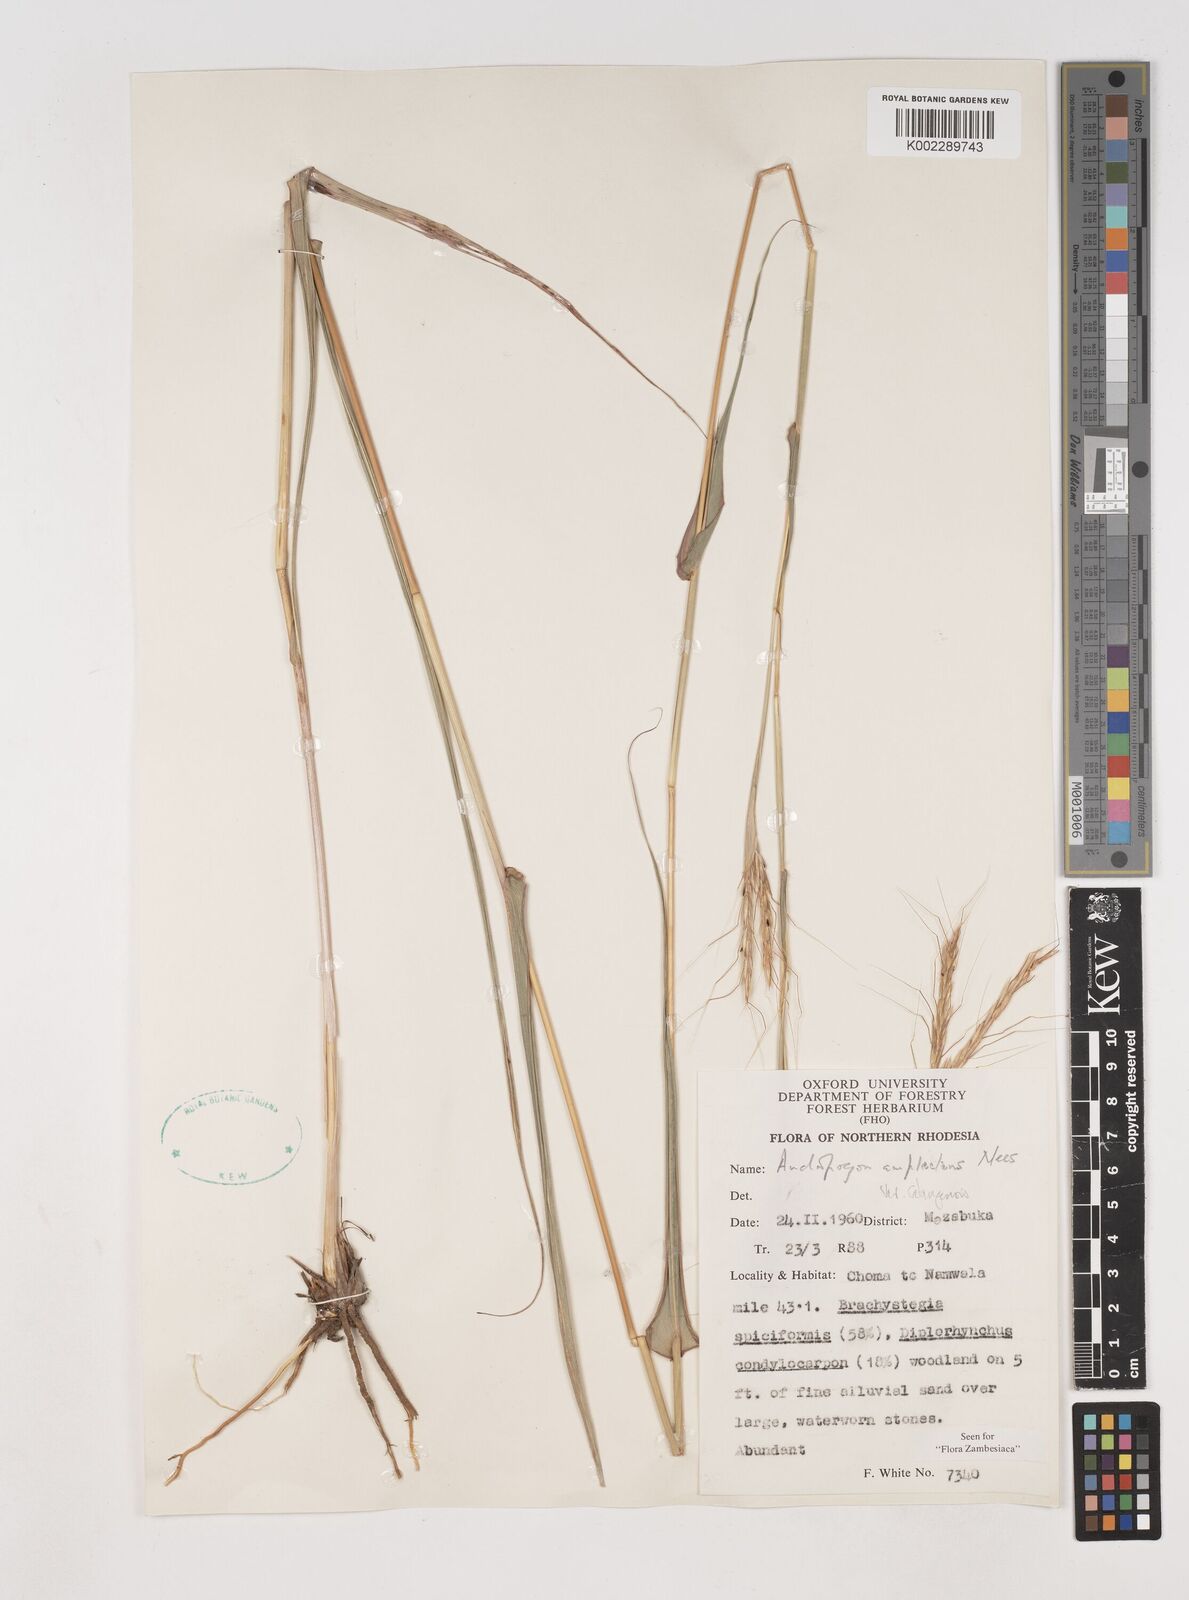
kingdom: Plantae
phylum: Tracheophyta
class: Liliopsida
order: Poales
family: Poaceae
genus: Diheteropogon
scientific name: Diheteropogon amplectens
